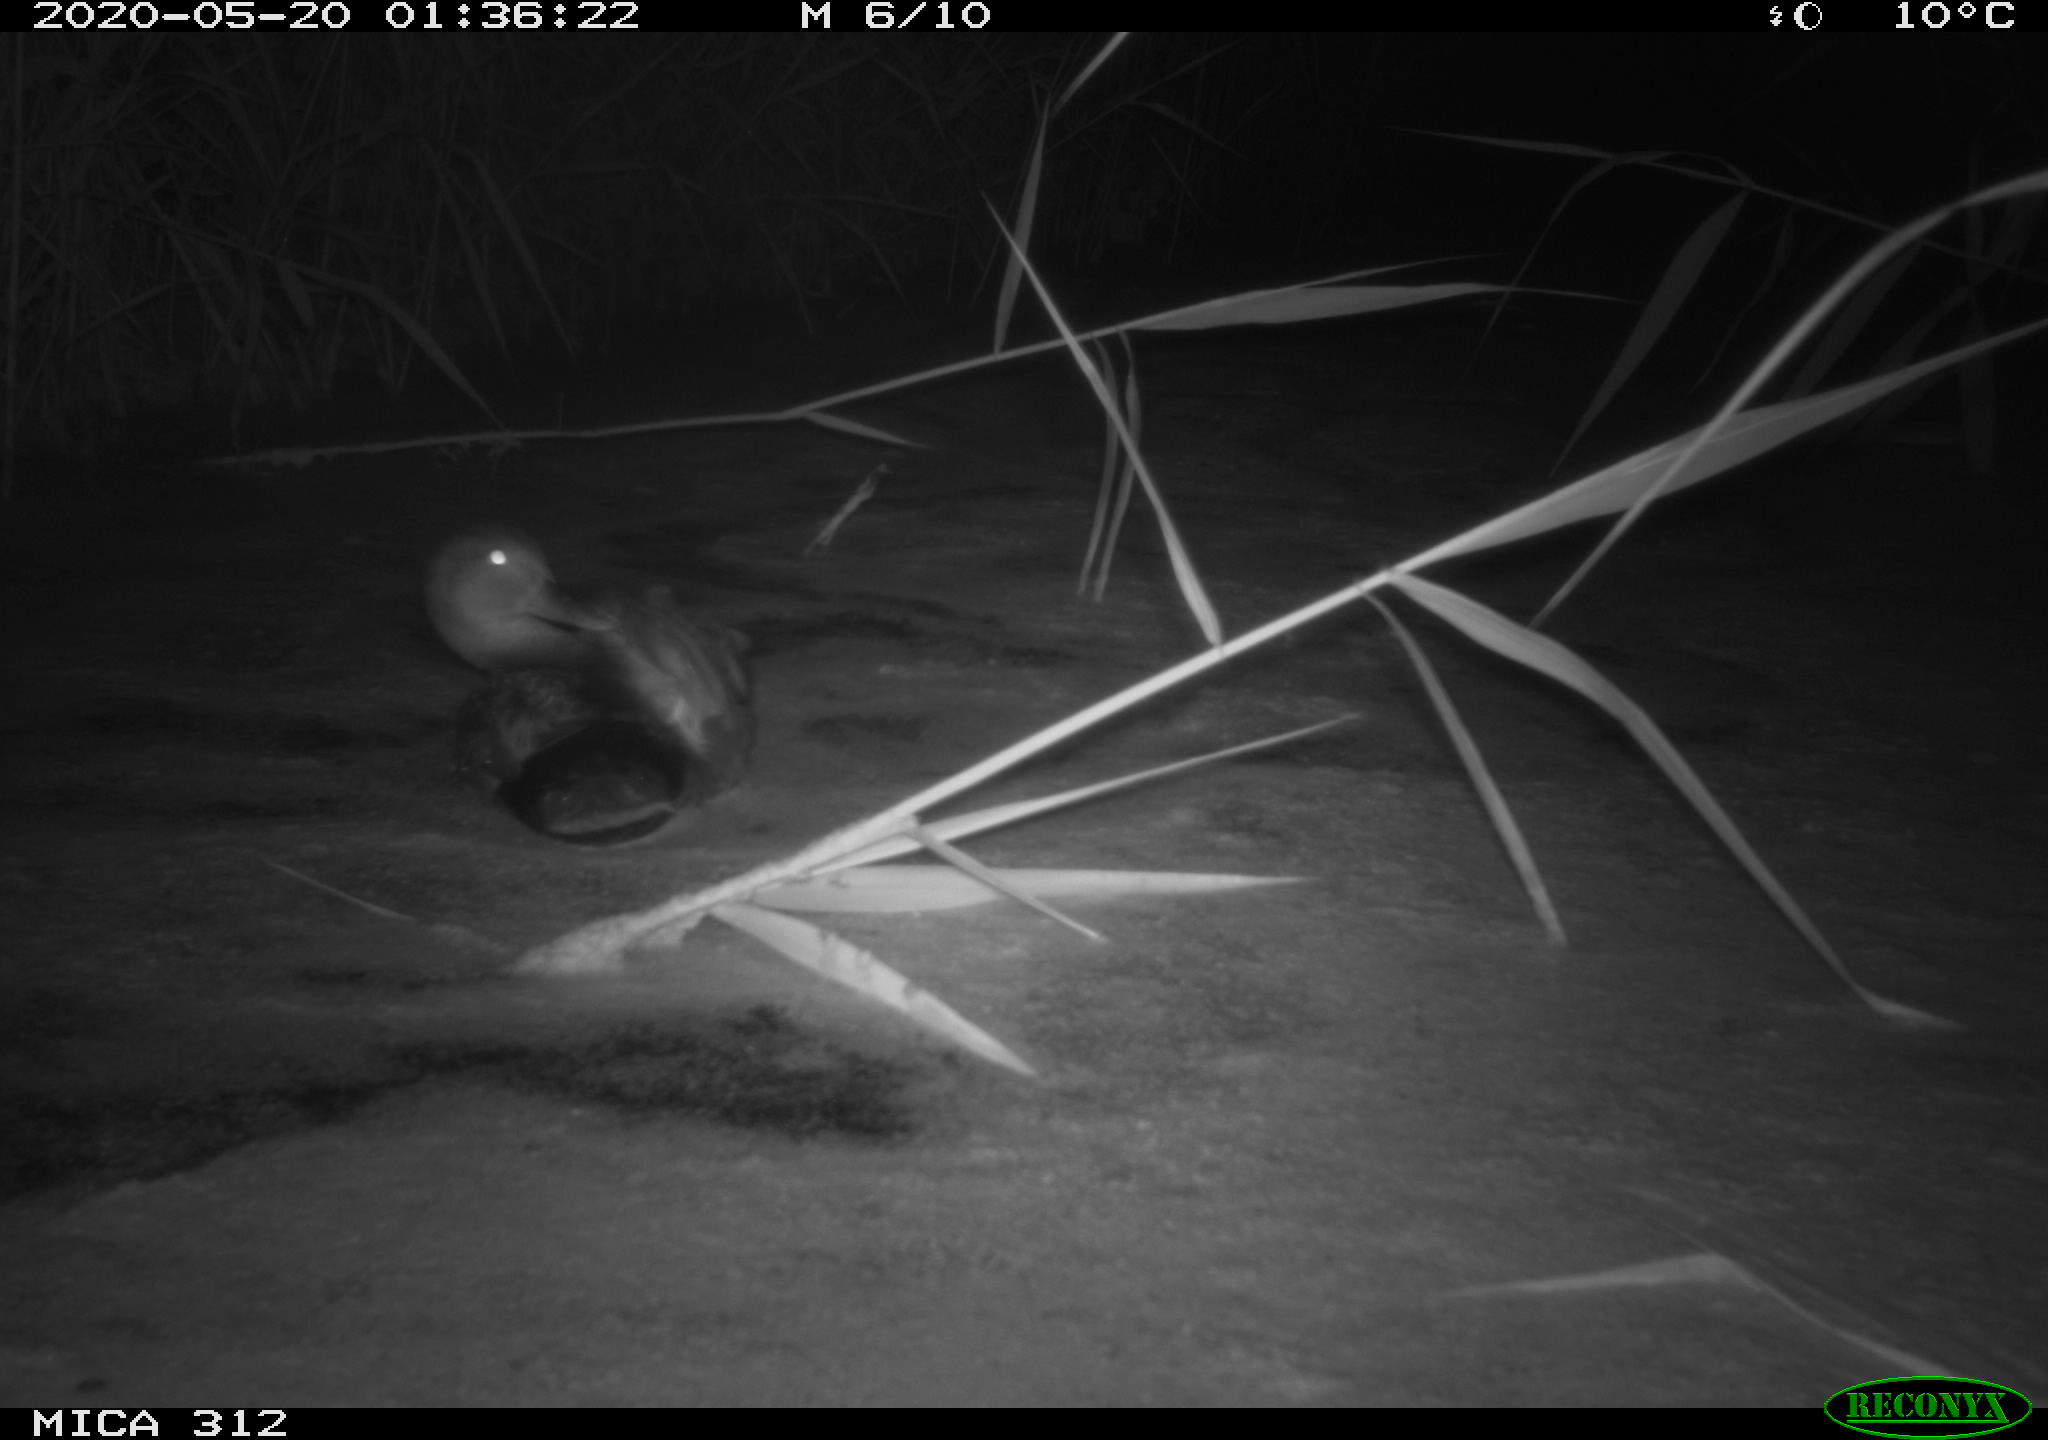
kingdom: Animalia
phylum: Chordata
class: Aves
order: Anseriformes
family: Anatidae
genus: Anas
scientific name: Anas platyrhynchos
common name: Mallard
